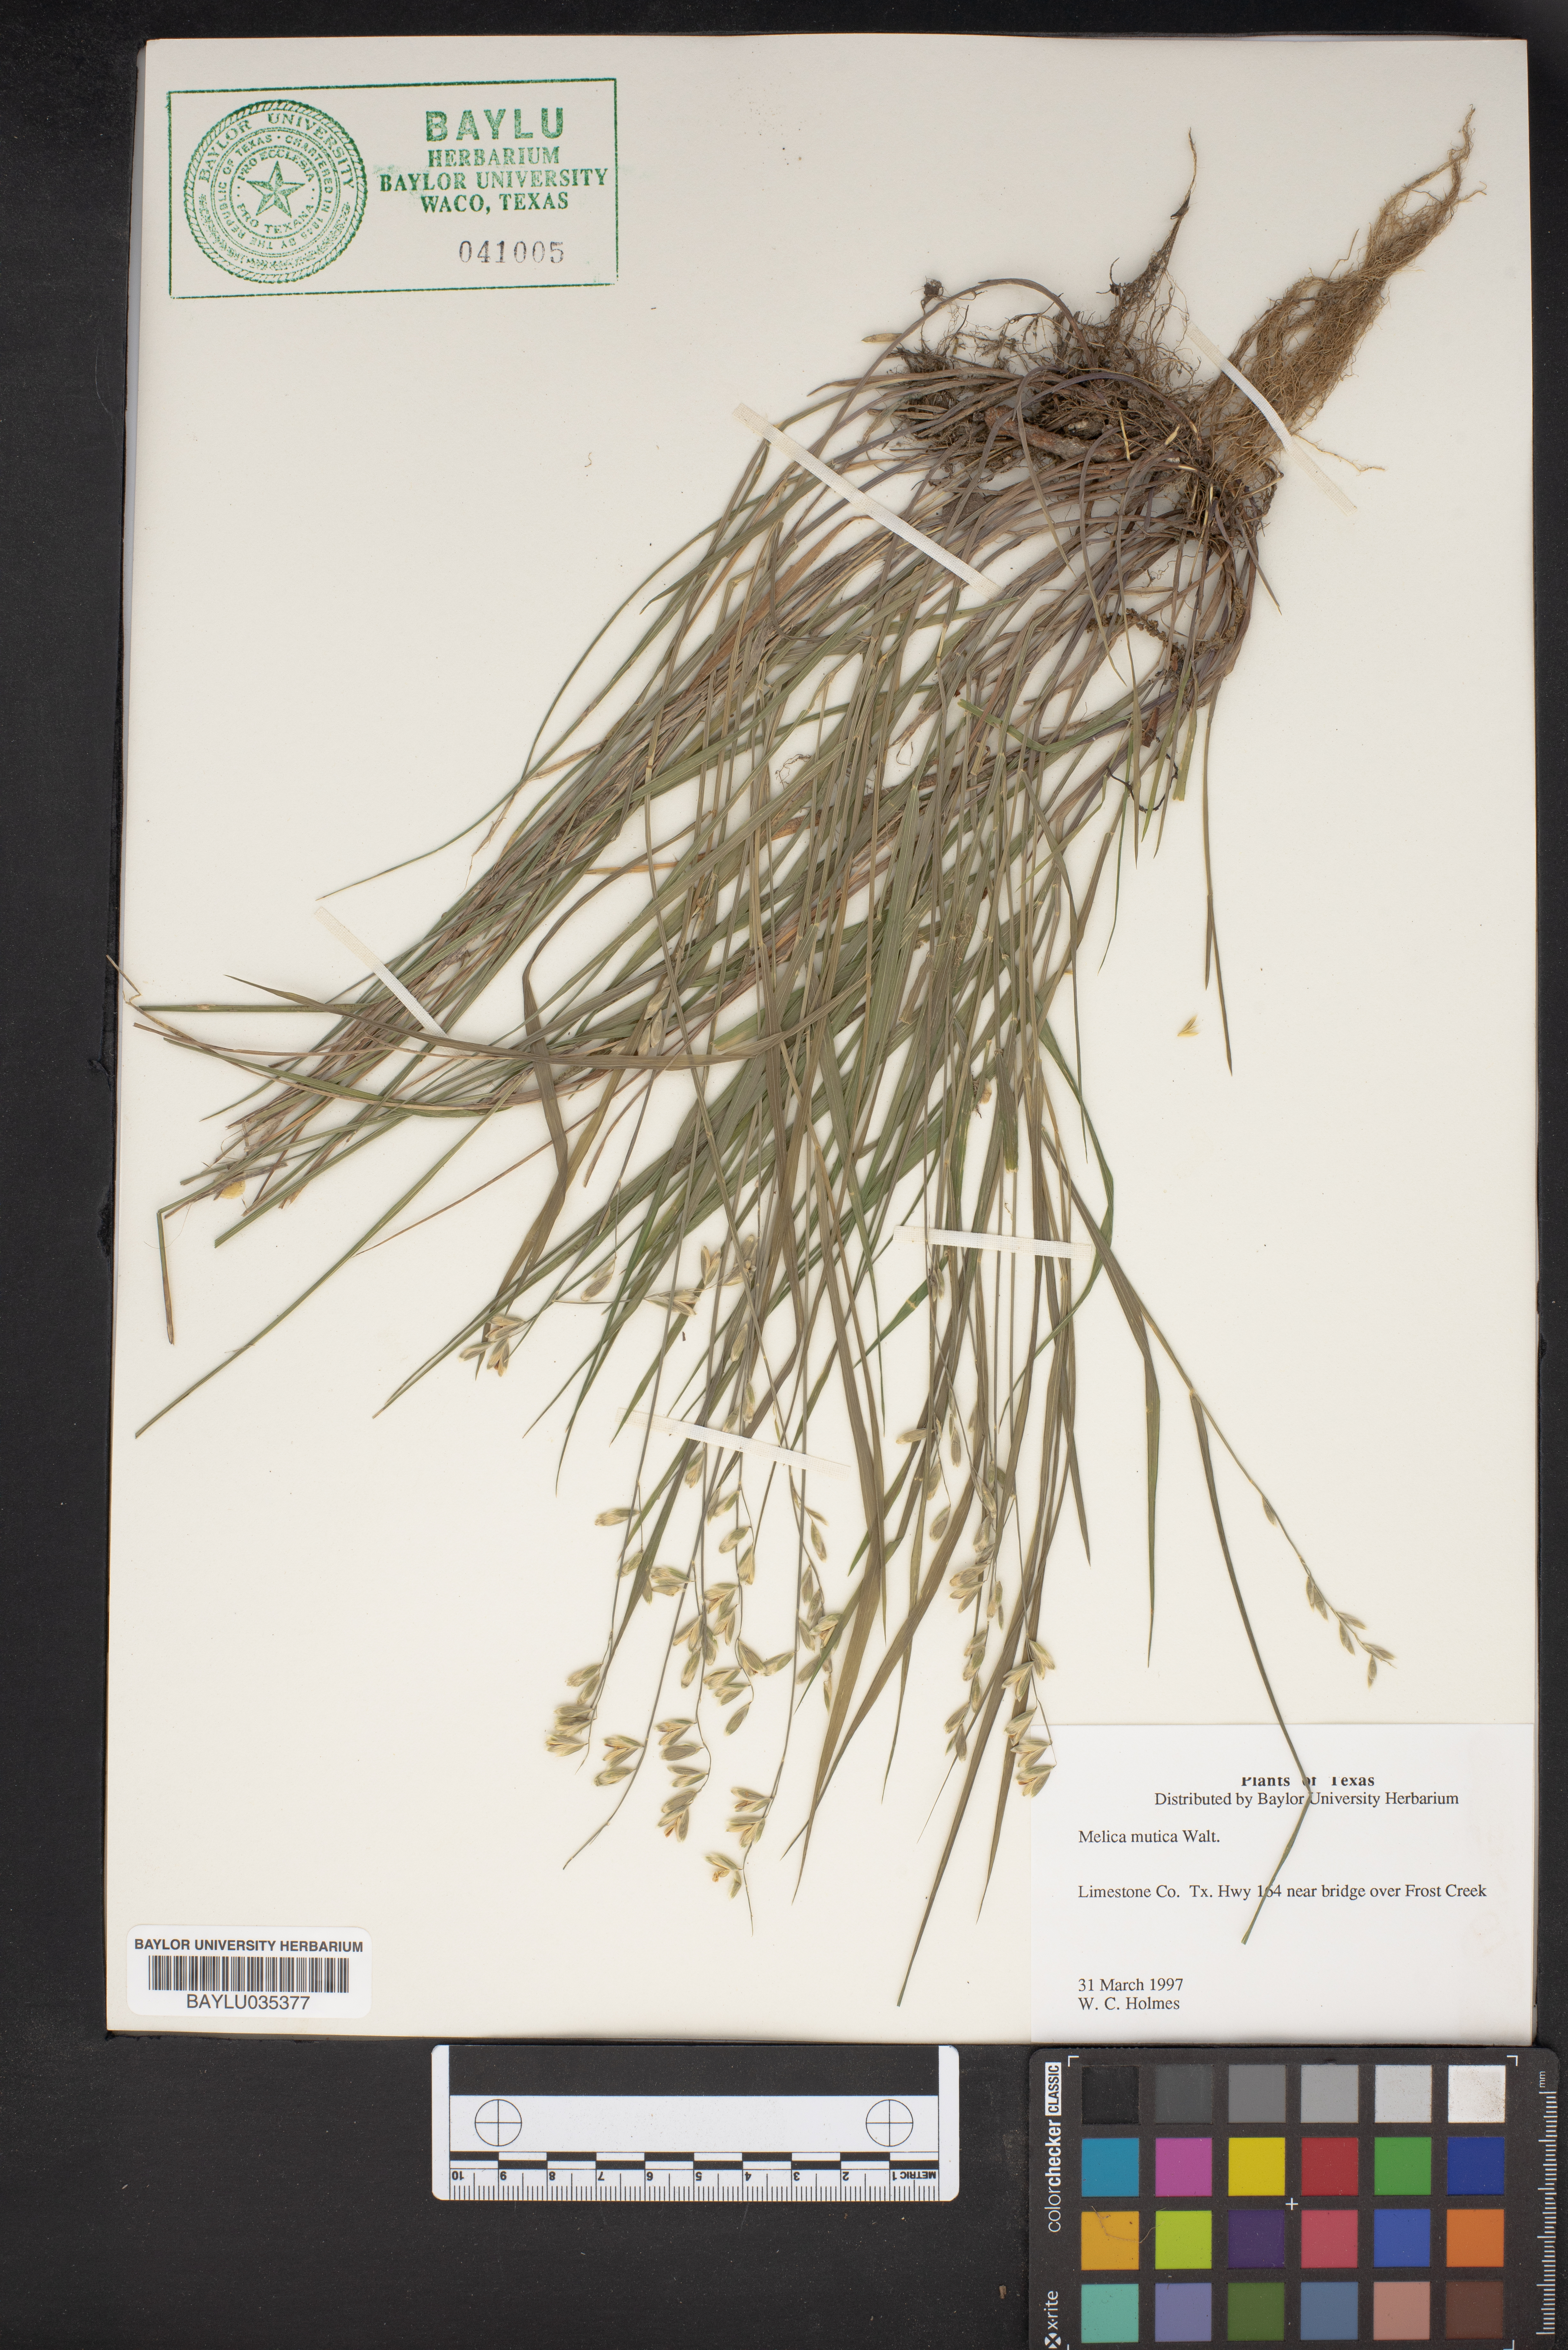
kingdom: Plantae
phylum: Tracheophyta
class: Liliopsida
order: Poales
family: Poaceae
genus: Melica
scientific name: Melica mutica
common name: Two-flower melic
